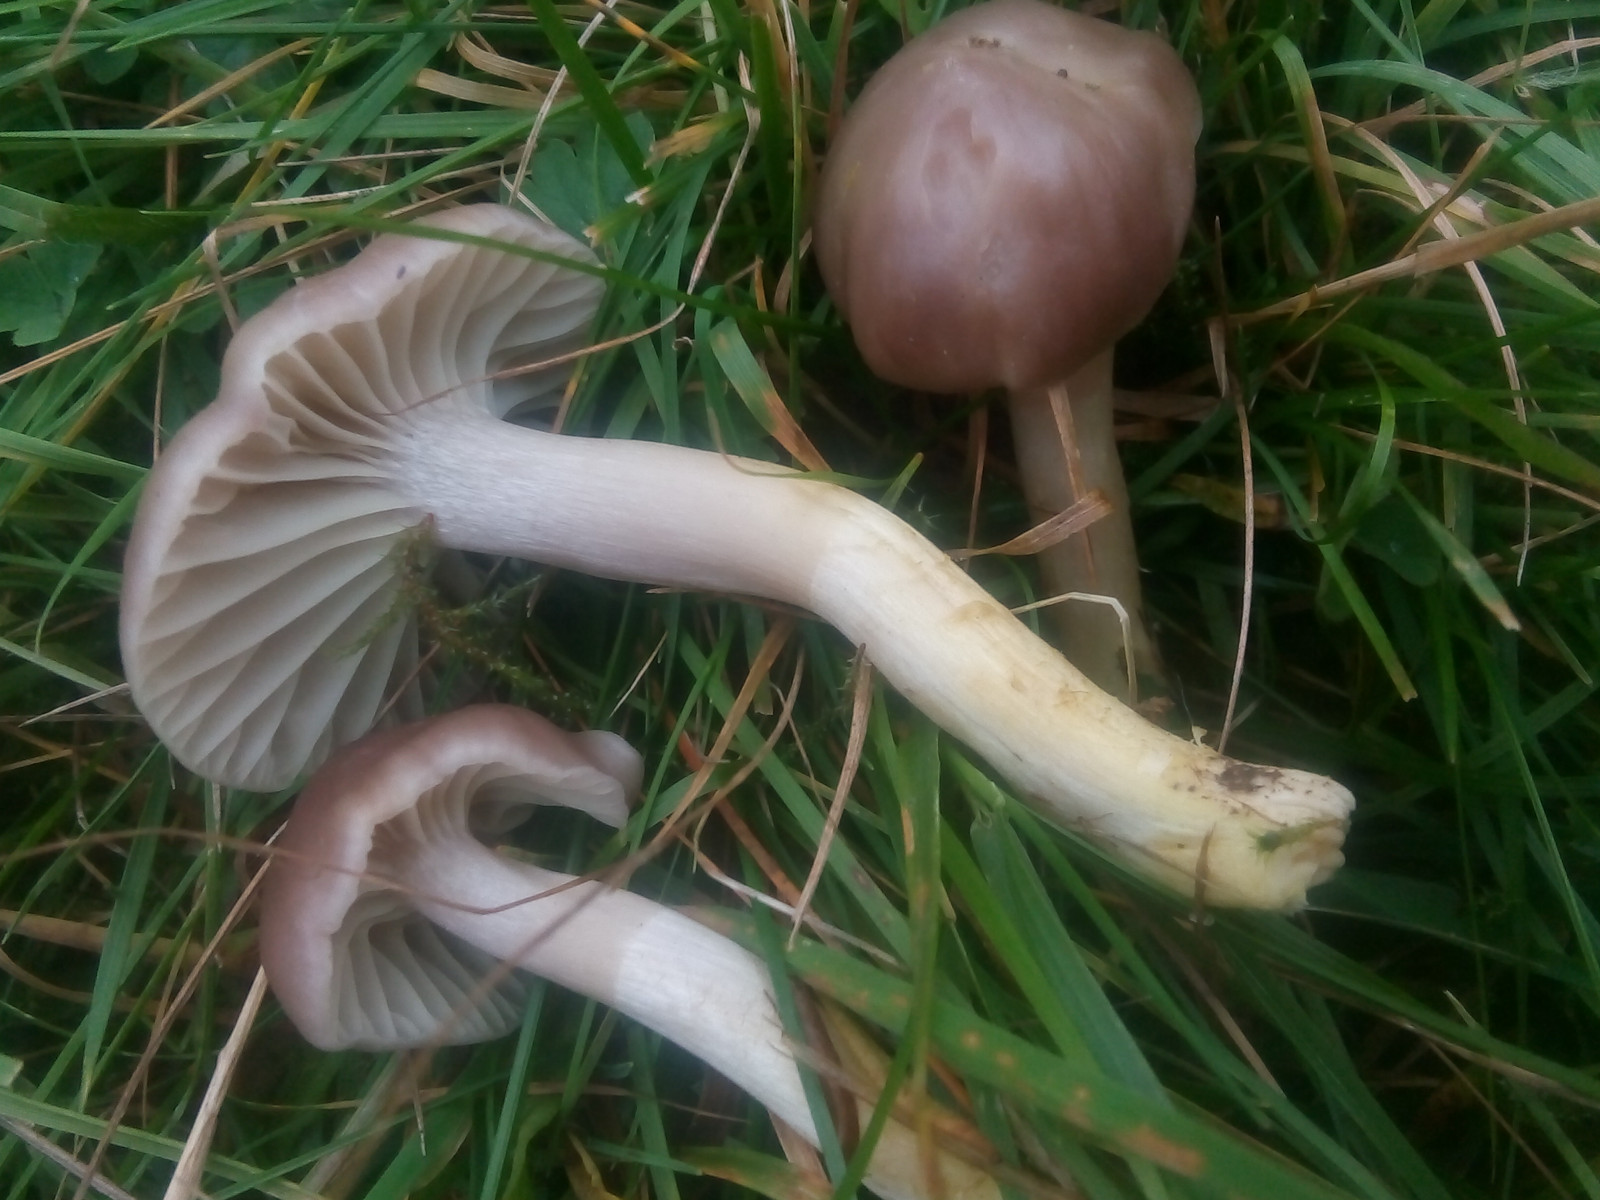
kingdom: Fungi
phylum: Basidiomycota
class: Agaricomycetes
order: Agaricales
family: Hygrophoraceae
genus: Cuphophyllus
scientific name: Cuphophyllus flavipes
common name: gulfodet vokshat
